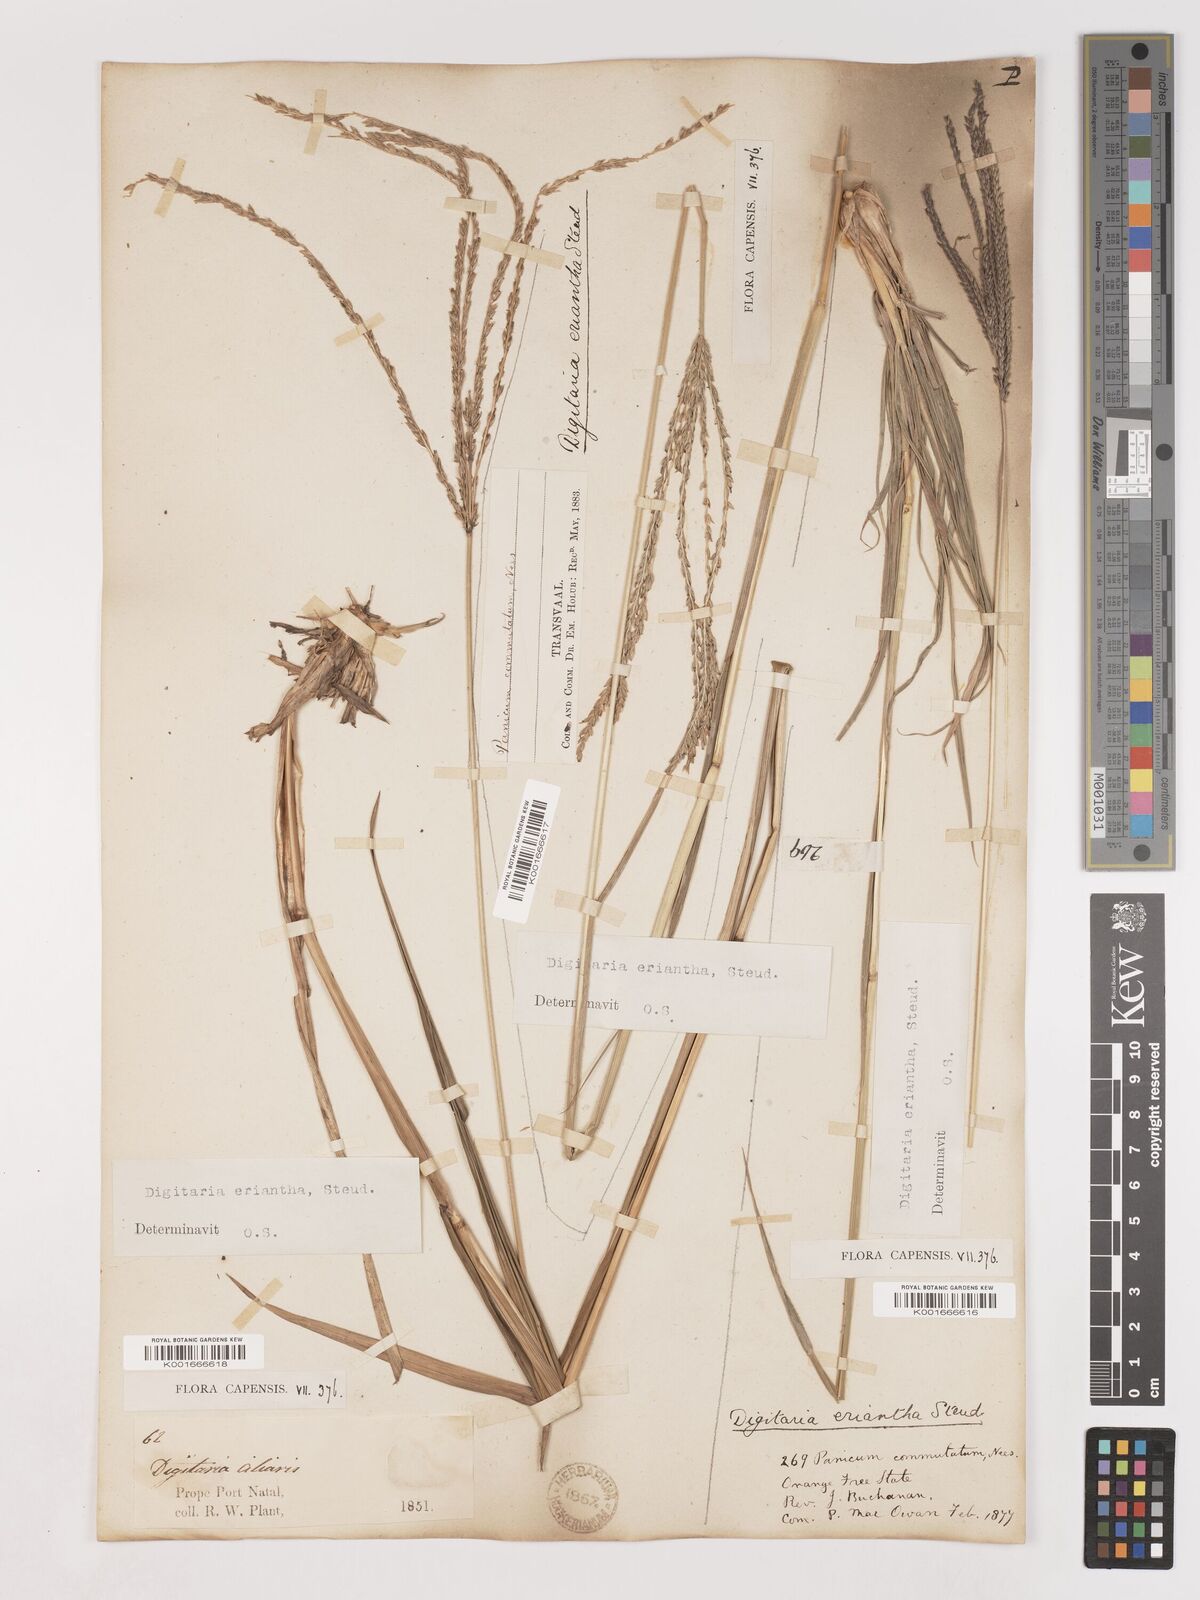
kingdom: Plantae
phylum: Tracheophyta
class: Liliopsida
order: Poales
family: Poaceae
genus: Digitaria
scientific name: Digitaria eriantha
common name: Digitgrass
